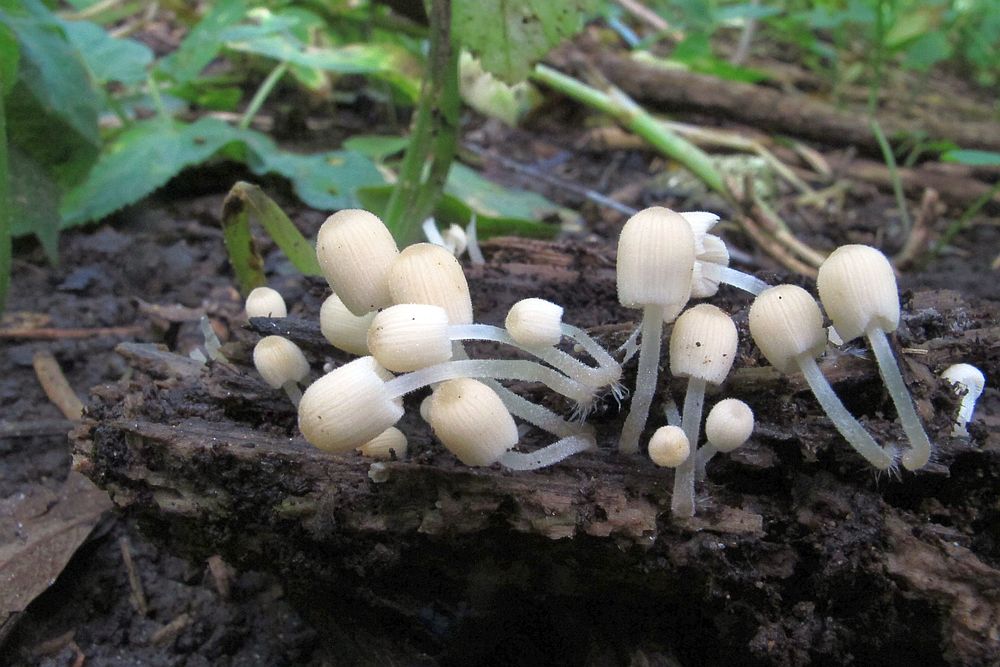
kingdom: Fungi
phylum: Basidiomycota
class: Agaricomycetes
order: Agaricales
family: Psathyrellaceae
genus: Coprinellus
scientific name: Coprinellus disseminatus
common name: bredsået blækhat
